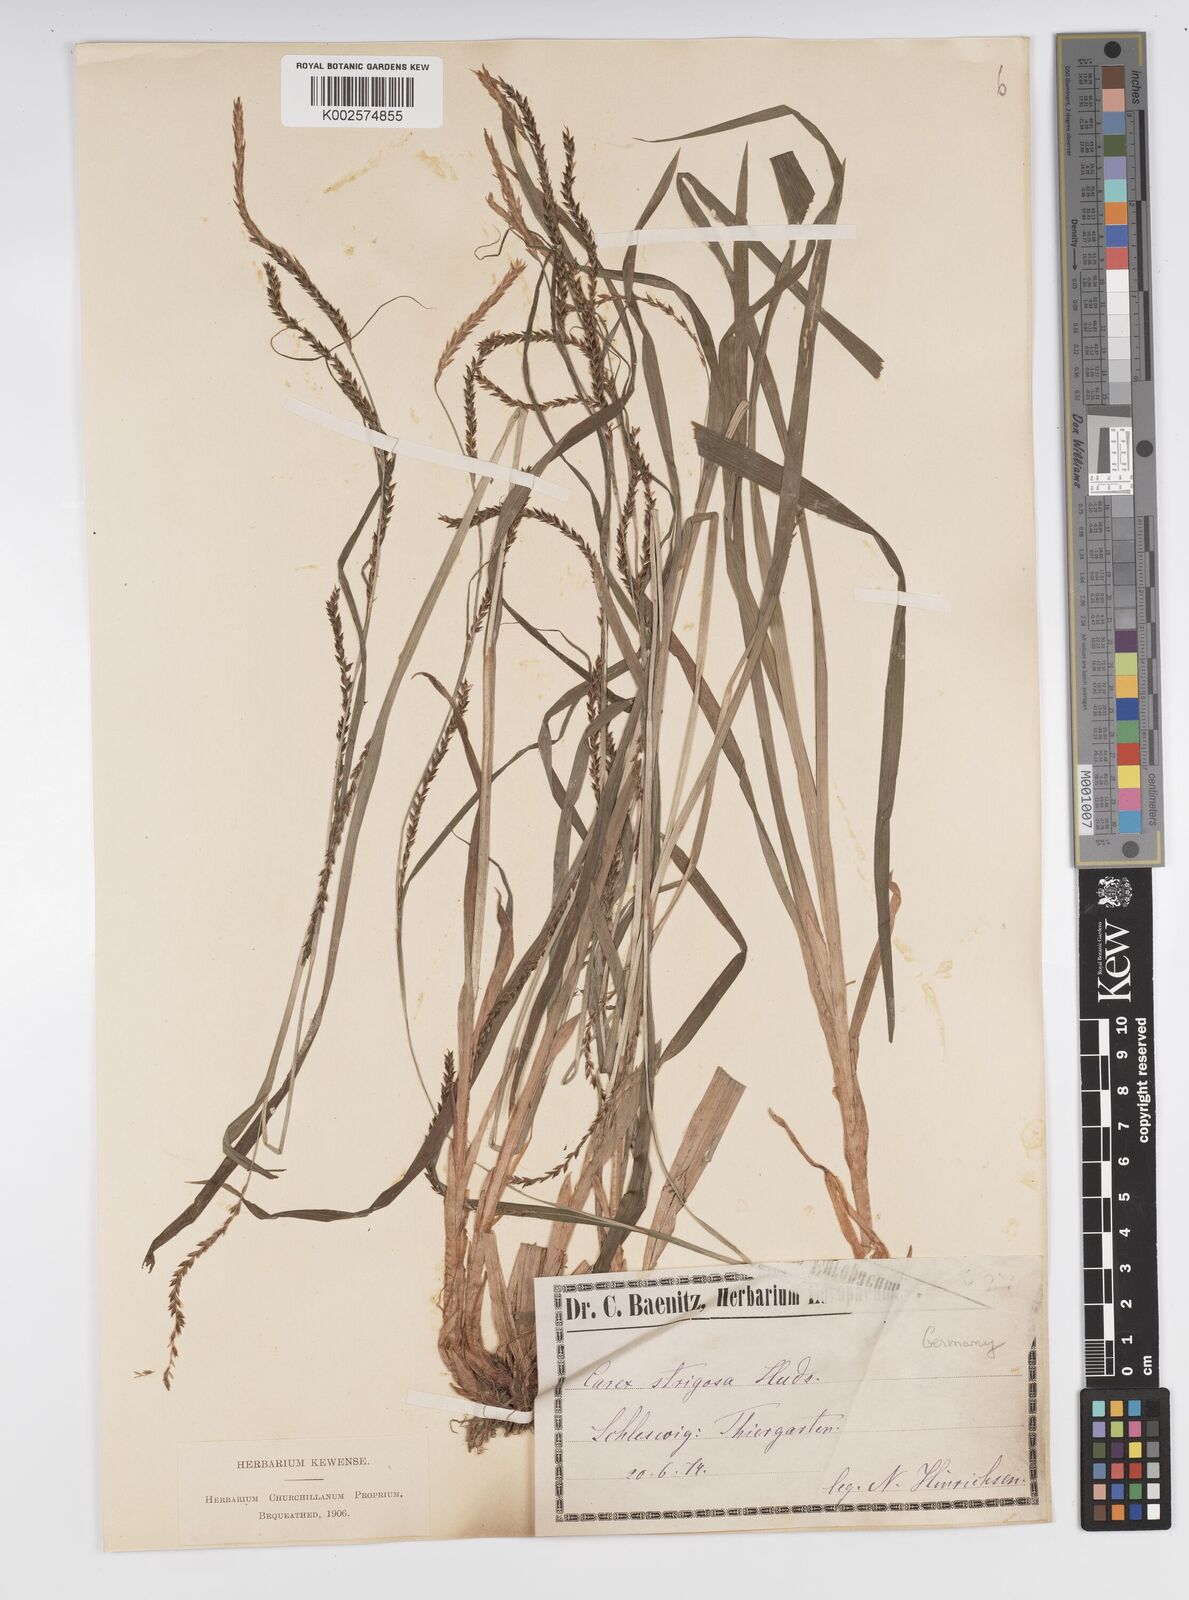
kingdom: Plantae
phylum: Tracheophyta
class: Liliopsida
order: Poales
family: Cyperaceae
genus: Carex
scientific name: Carex strigosa
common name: Thin-spiked wood-sedge
